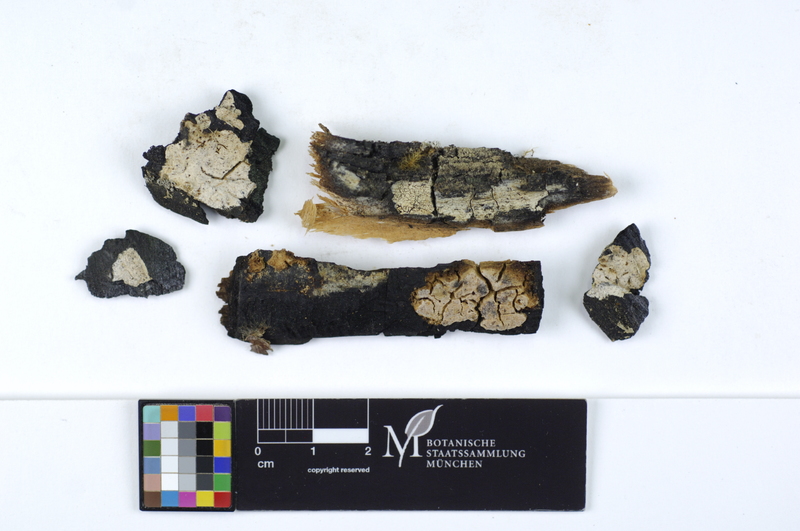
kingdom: Fungi
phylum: Basidiomycota
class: Agaricomycetes
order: Gloeophyllales
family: Gloeophyllaceae
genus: Chaetodermella
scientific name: Chaetodermella luna
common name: Crescent crust
